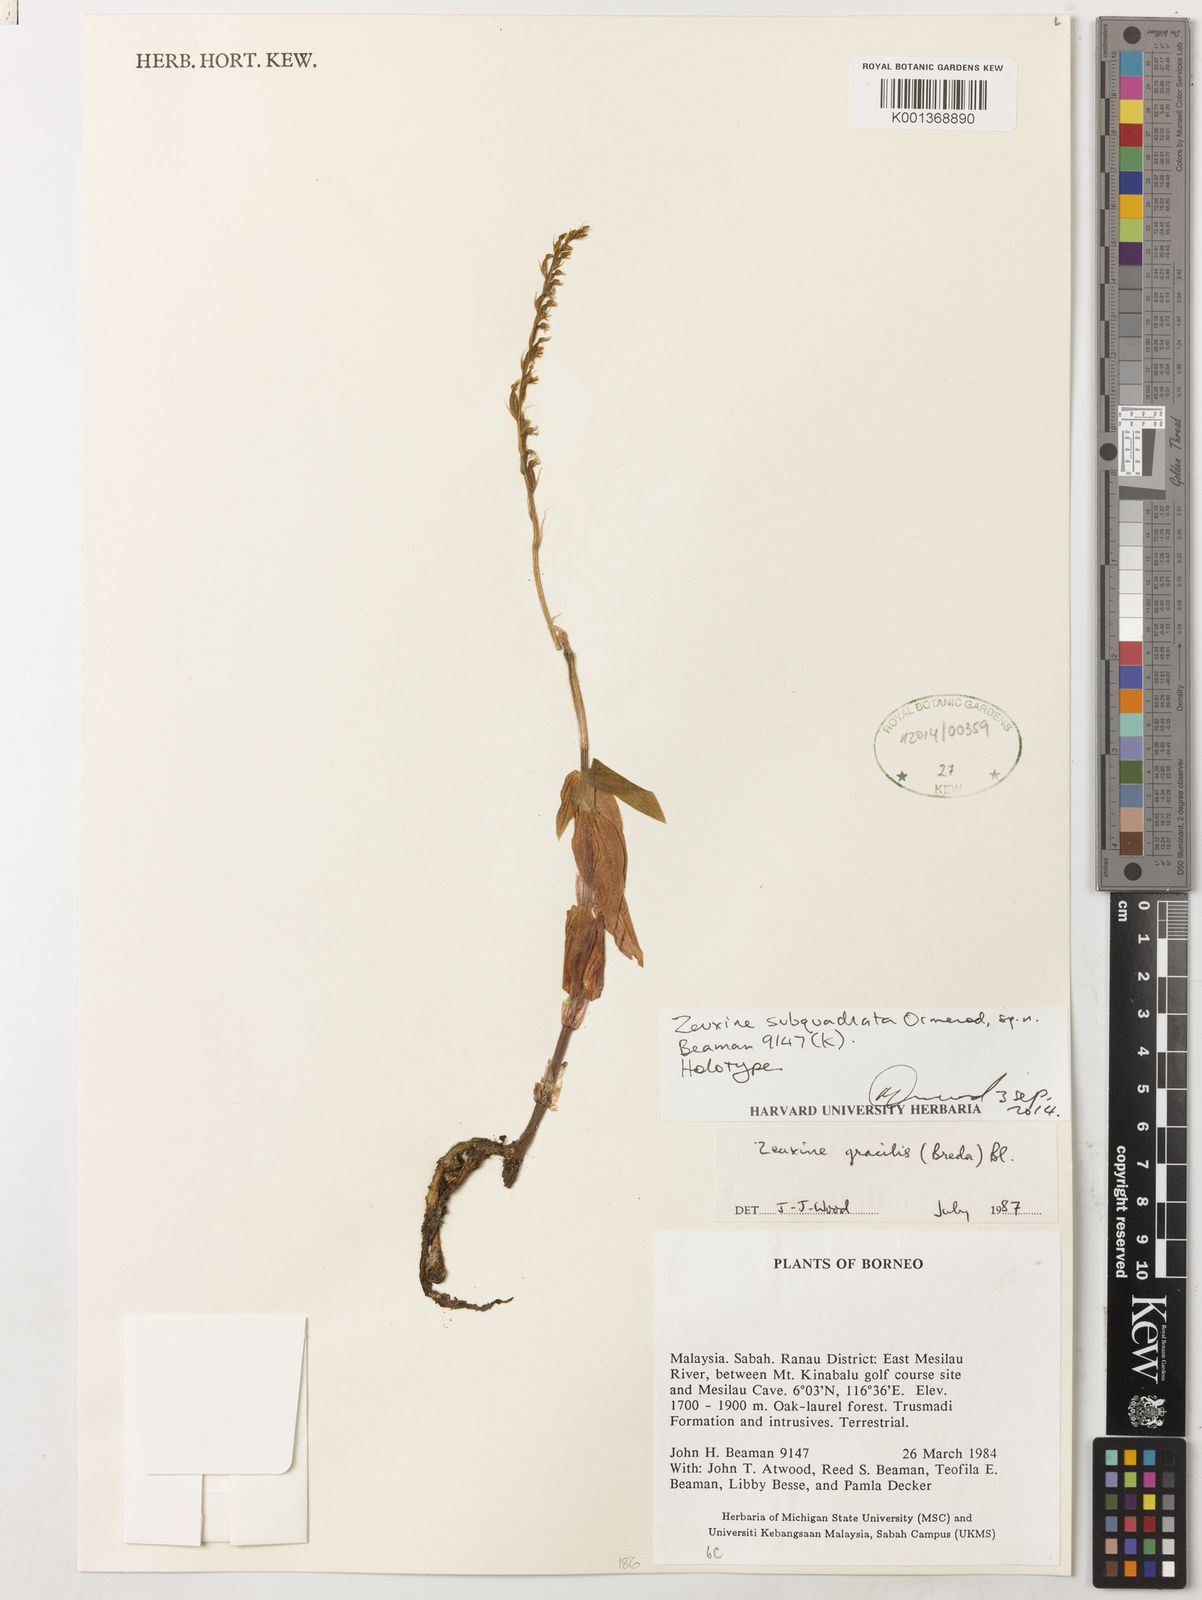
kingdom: Plantae
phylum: Tracheophyta
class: Liliopsida
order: Asparagales
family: Orchidaceae
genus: Zeuxine
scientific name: Zeuxine subquadrata
